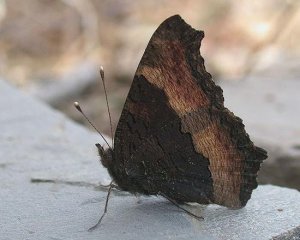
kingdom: Animalia
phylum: Arthropoda
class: Insecta
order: Lepidoptera
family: Nymphalidae
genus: Aglais
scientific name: Aglais milberti
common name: Milbert's Tortoiseshell
